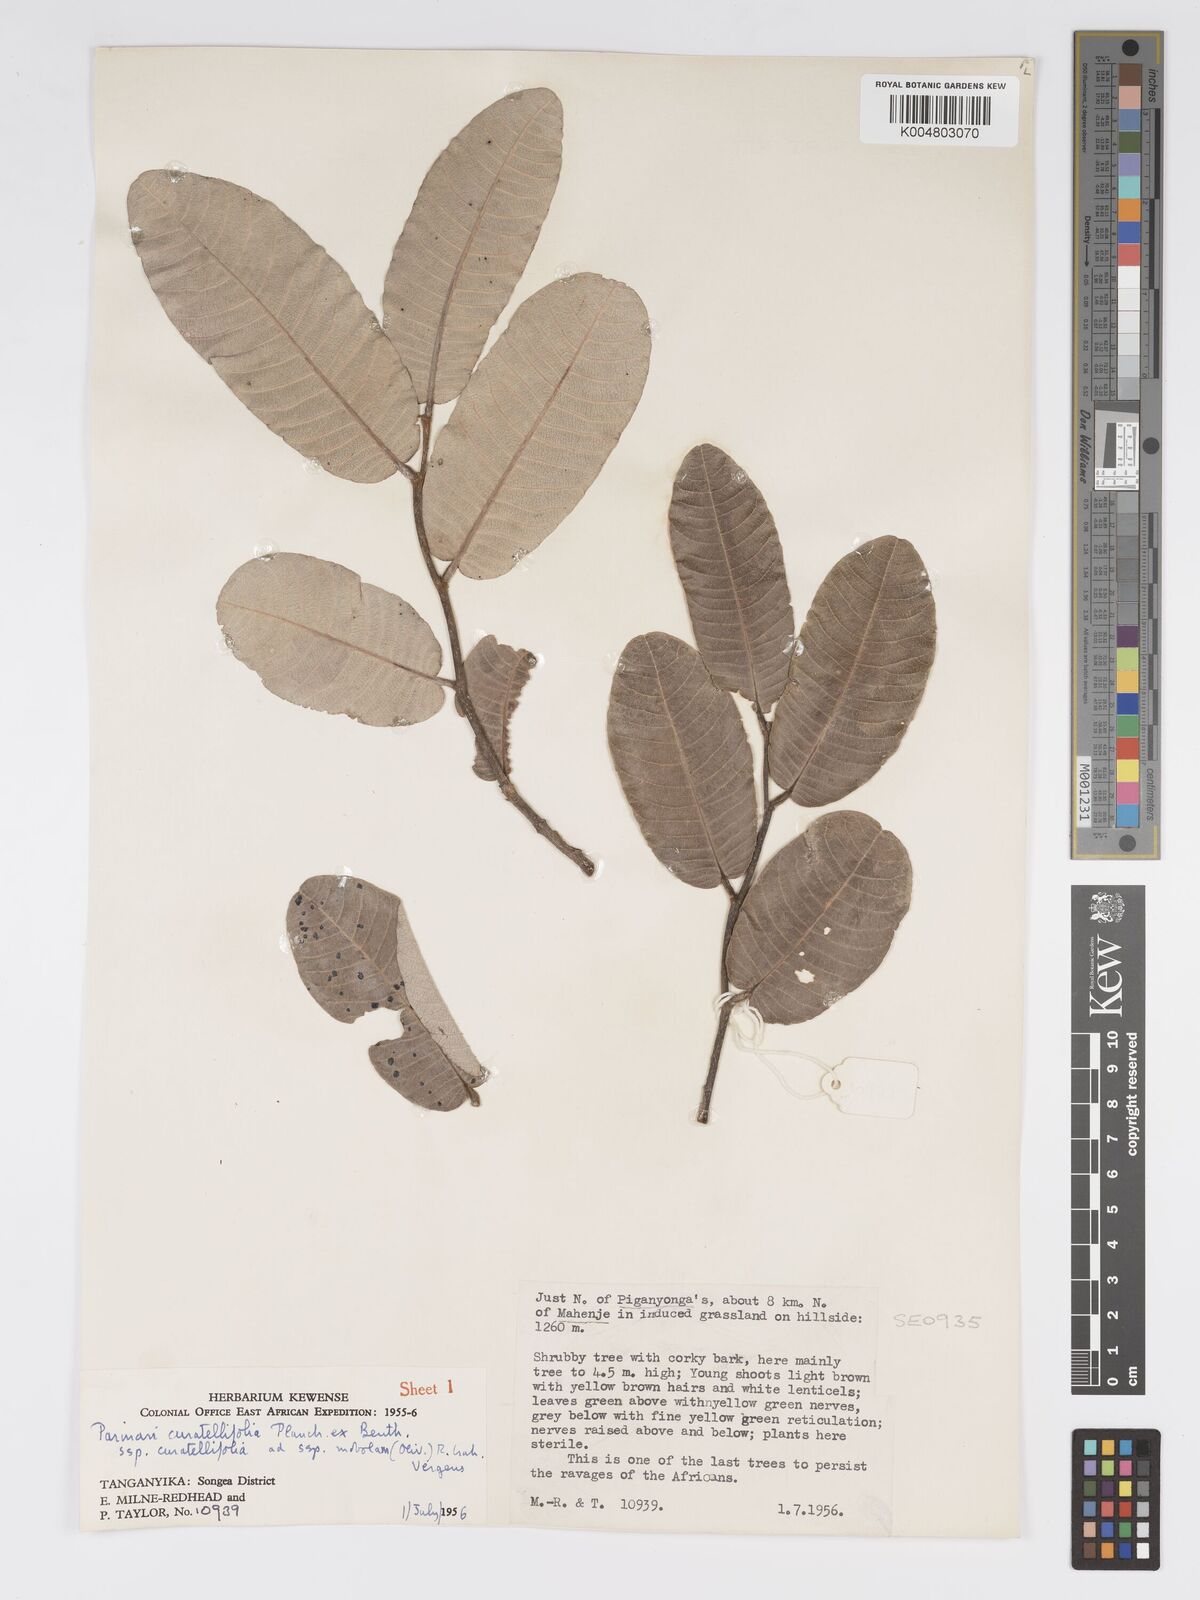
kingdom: Plantae
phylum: Tracheophyta
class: Magnoliopsida
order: Malpighiales
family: Chrysobalanaceae
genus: Parinari
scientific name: Parinari curatellifolia
